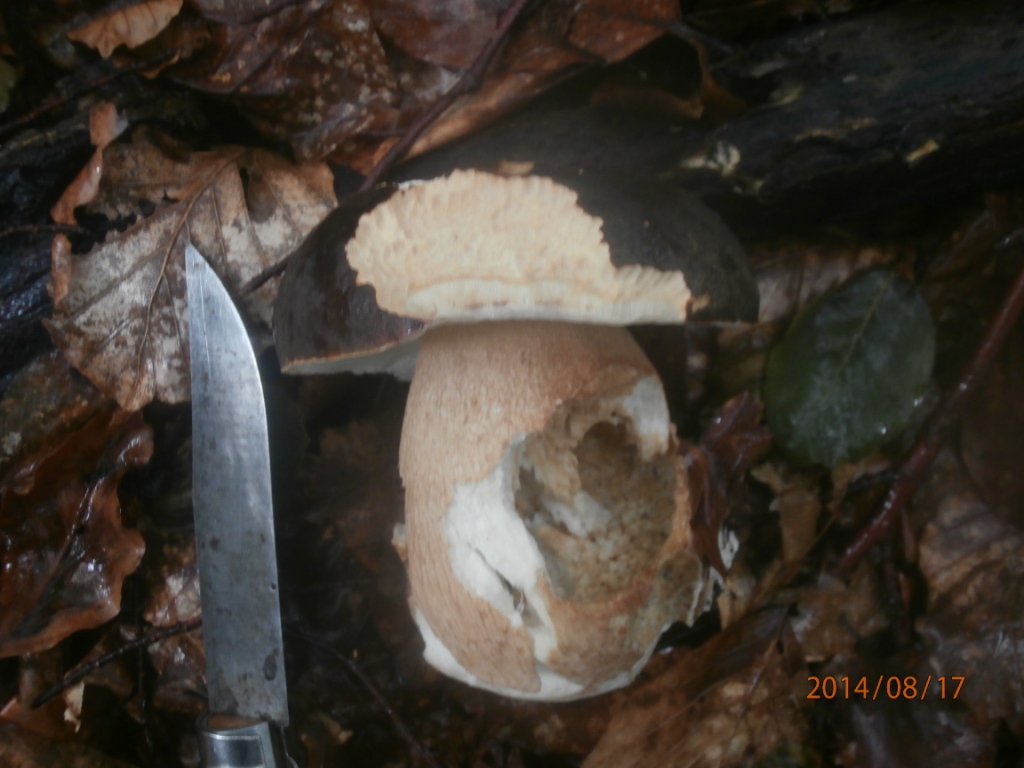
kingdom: Fungi
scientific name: Fungi
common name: bronze-rørhat
